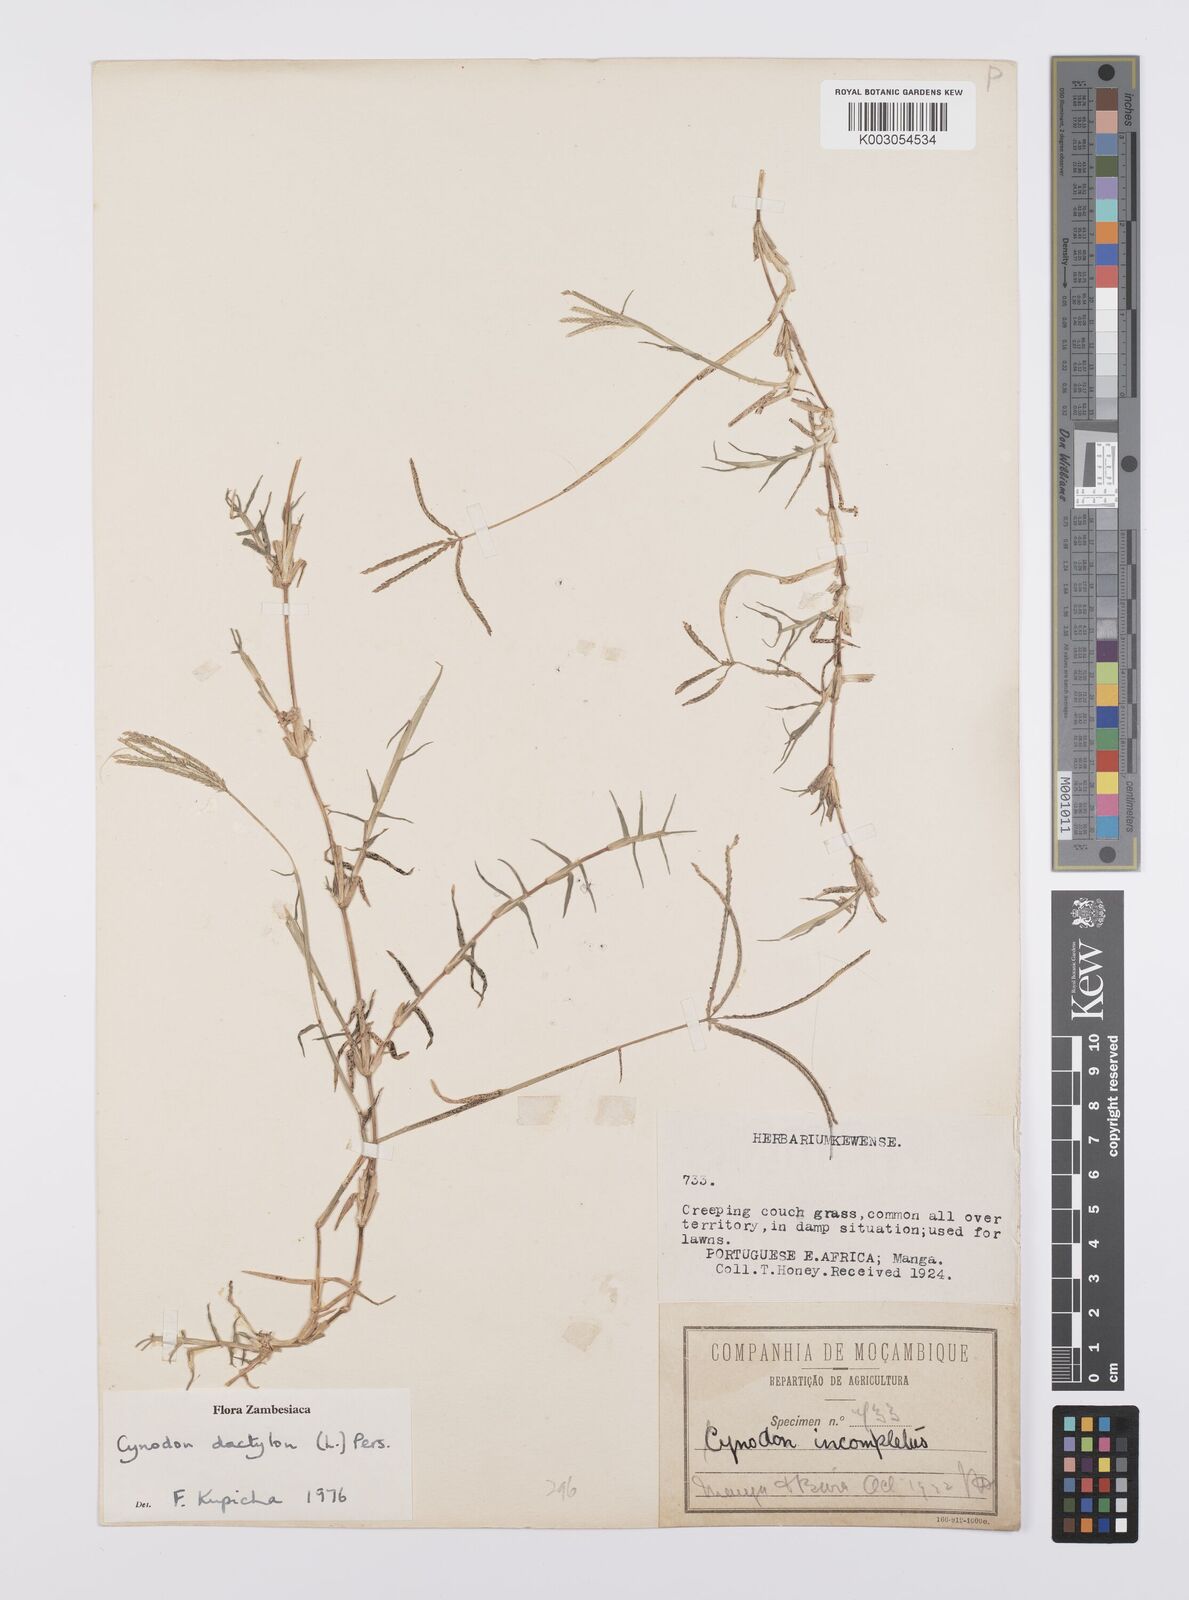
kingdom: Plantae
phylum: Tracheophyta
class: Liliopsida
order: Poales
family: Poaceae
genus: Cynodon
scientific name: Cynodon dactylon
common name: Bermuda grass
